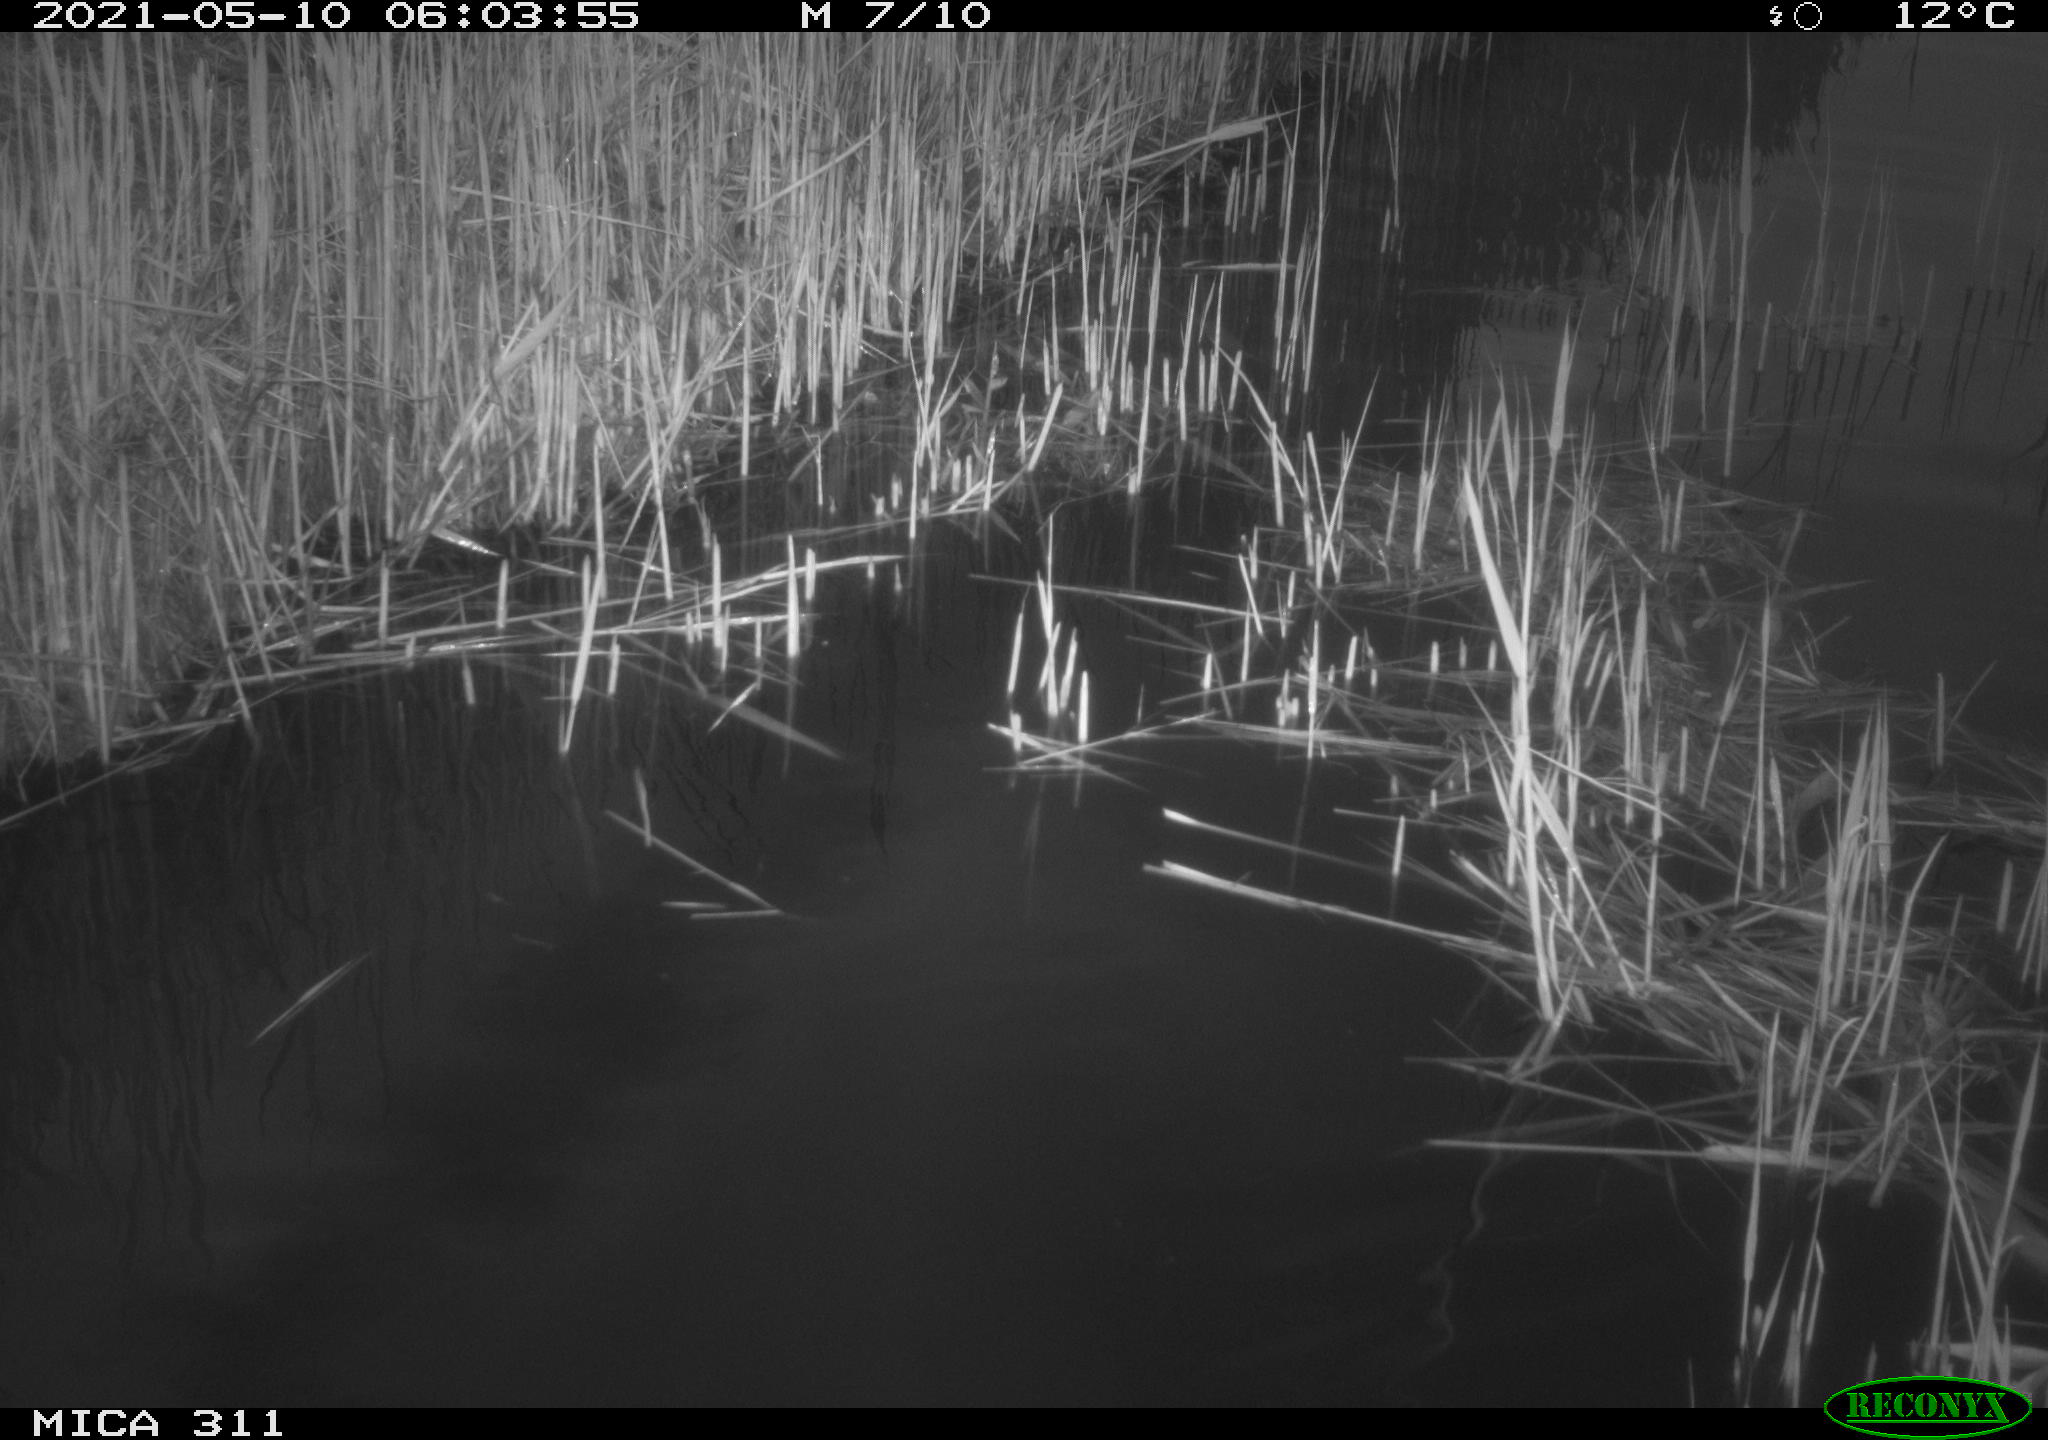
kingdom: Animalia
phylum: Chordata
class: Aves
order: Anseriformes
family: Anatidae
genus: Anas
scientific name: Anas
